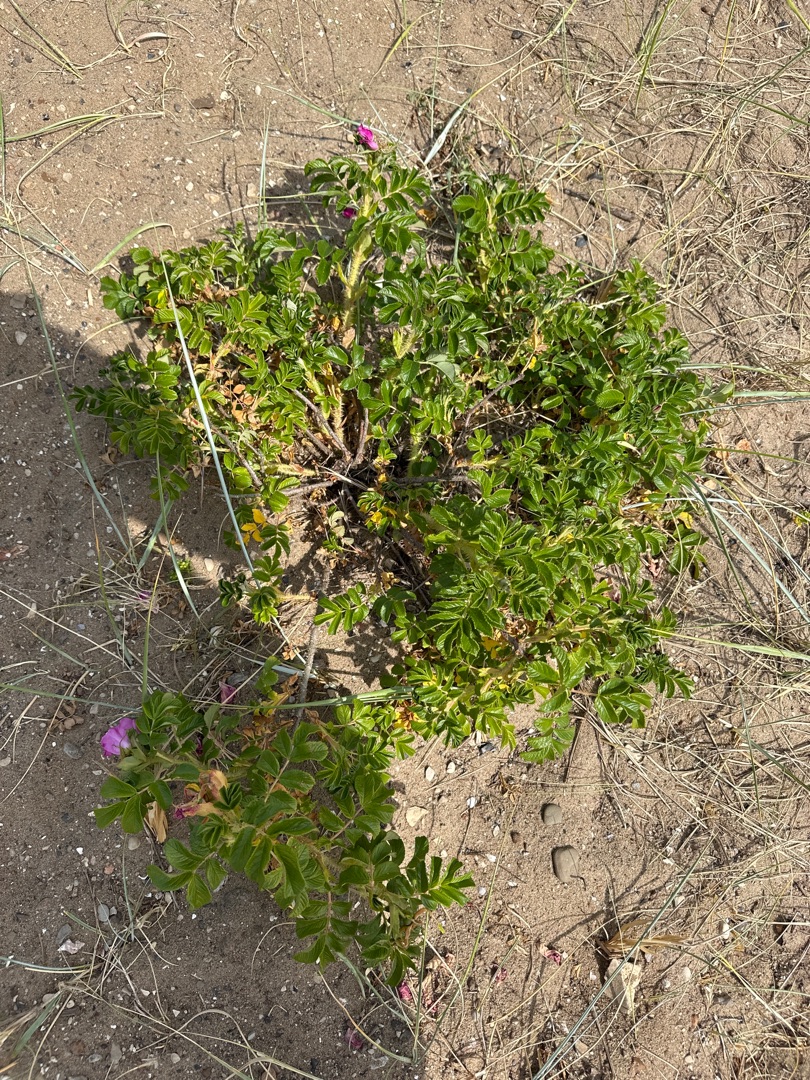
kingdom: Plantae
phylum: Tracheophyta
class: Magnoliopsida
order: Rosales
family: Rosaceae
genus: Rosa
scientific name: Rosa rugosa
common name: Rynket rose
